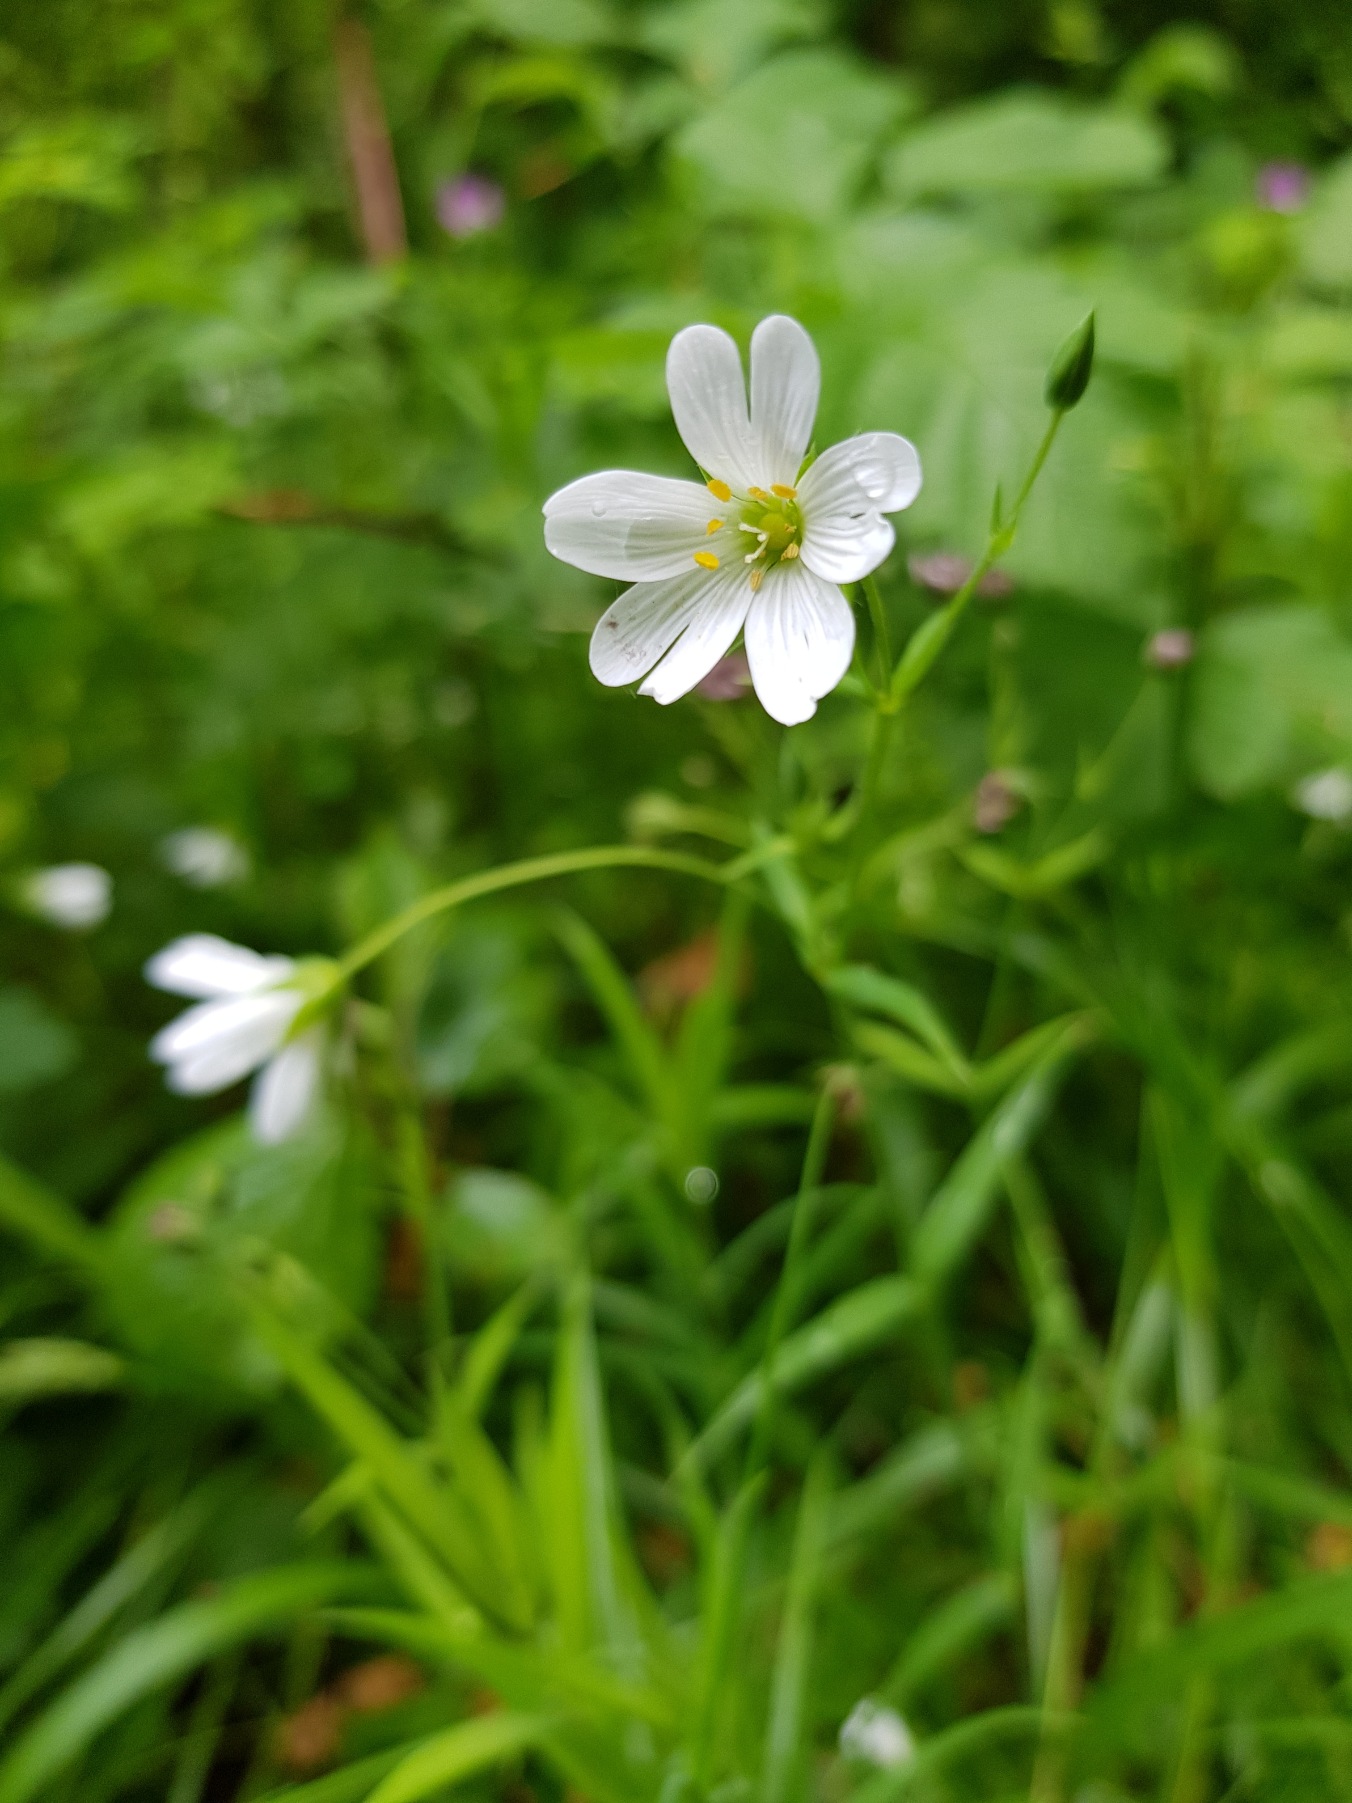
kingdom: Plantae
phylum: Tracheophyta
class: Magnoliopsida
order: Caryophyllales
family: Caryophyllaceae
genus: Rabelera
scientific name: Rabelera holostea
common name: Stor fladstjerne
